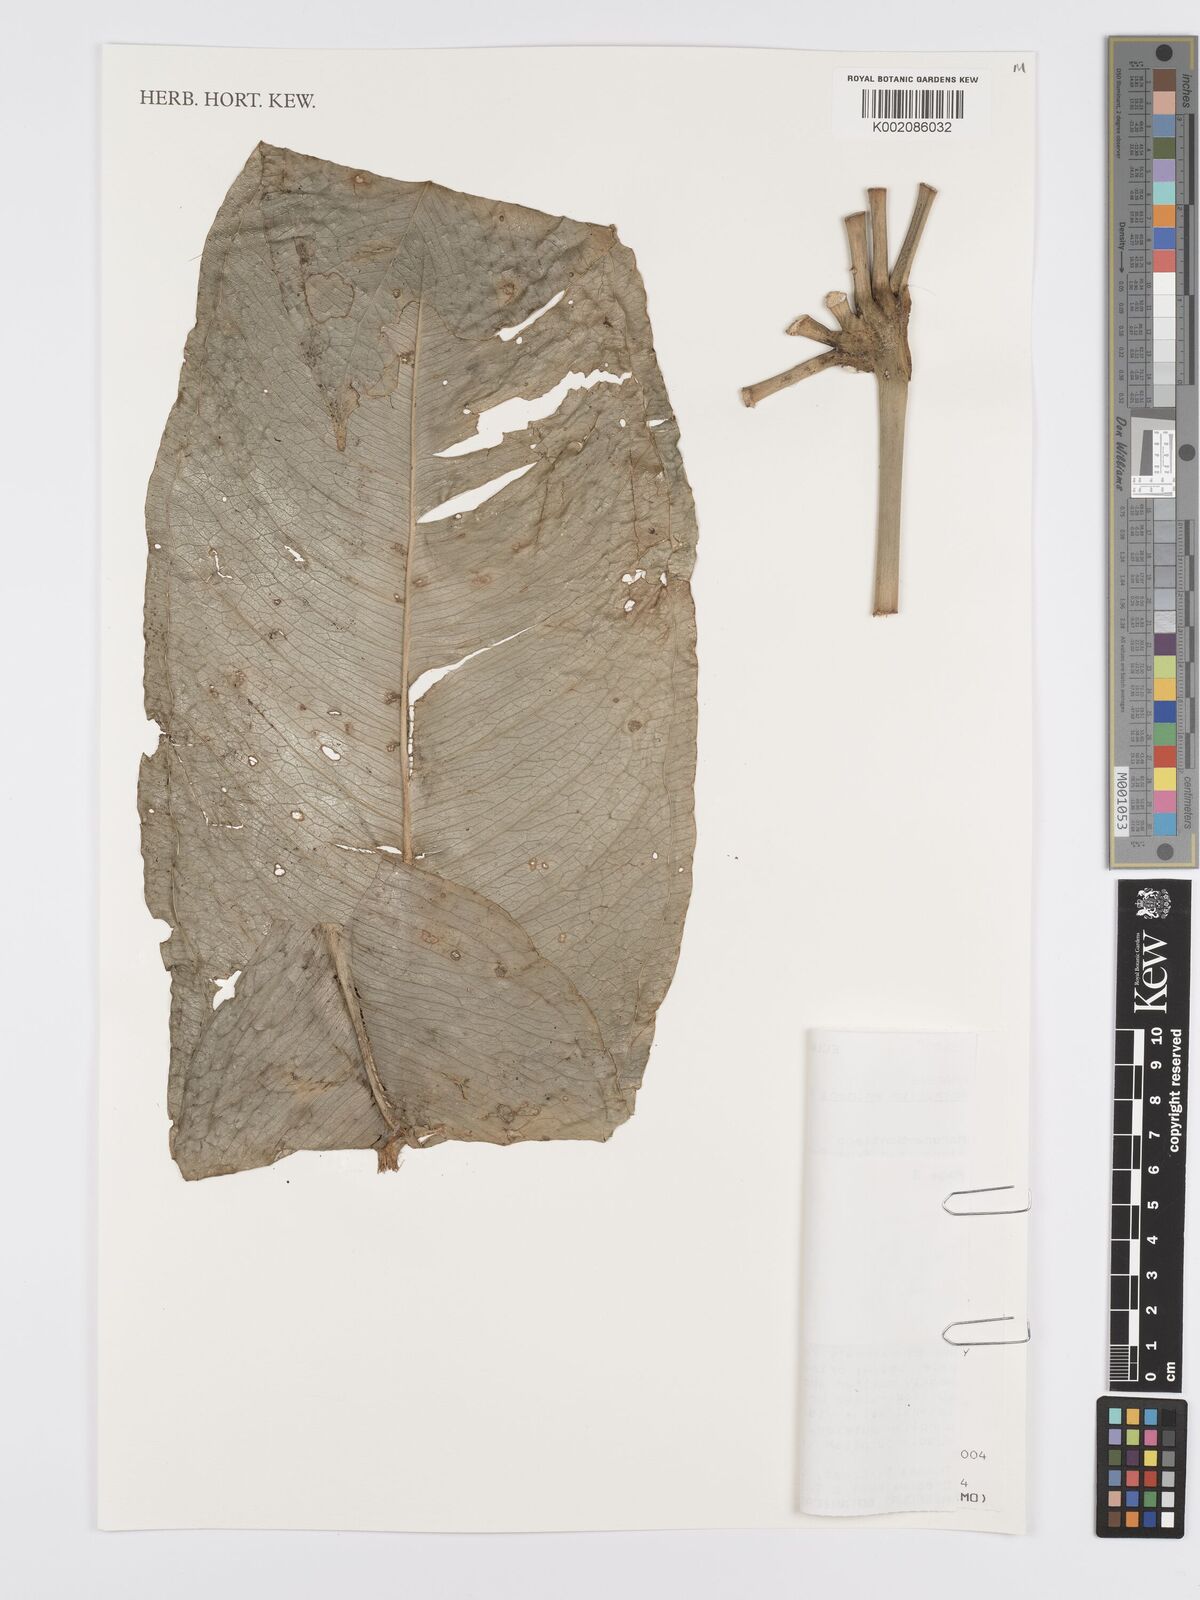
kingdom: Plantae
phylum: Tracheophyta
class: Liliopsida
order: Alismatales
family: Araceae
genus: Anthurium
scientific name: Anthurium eminens
